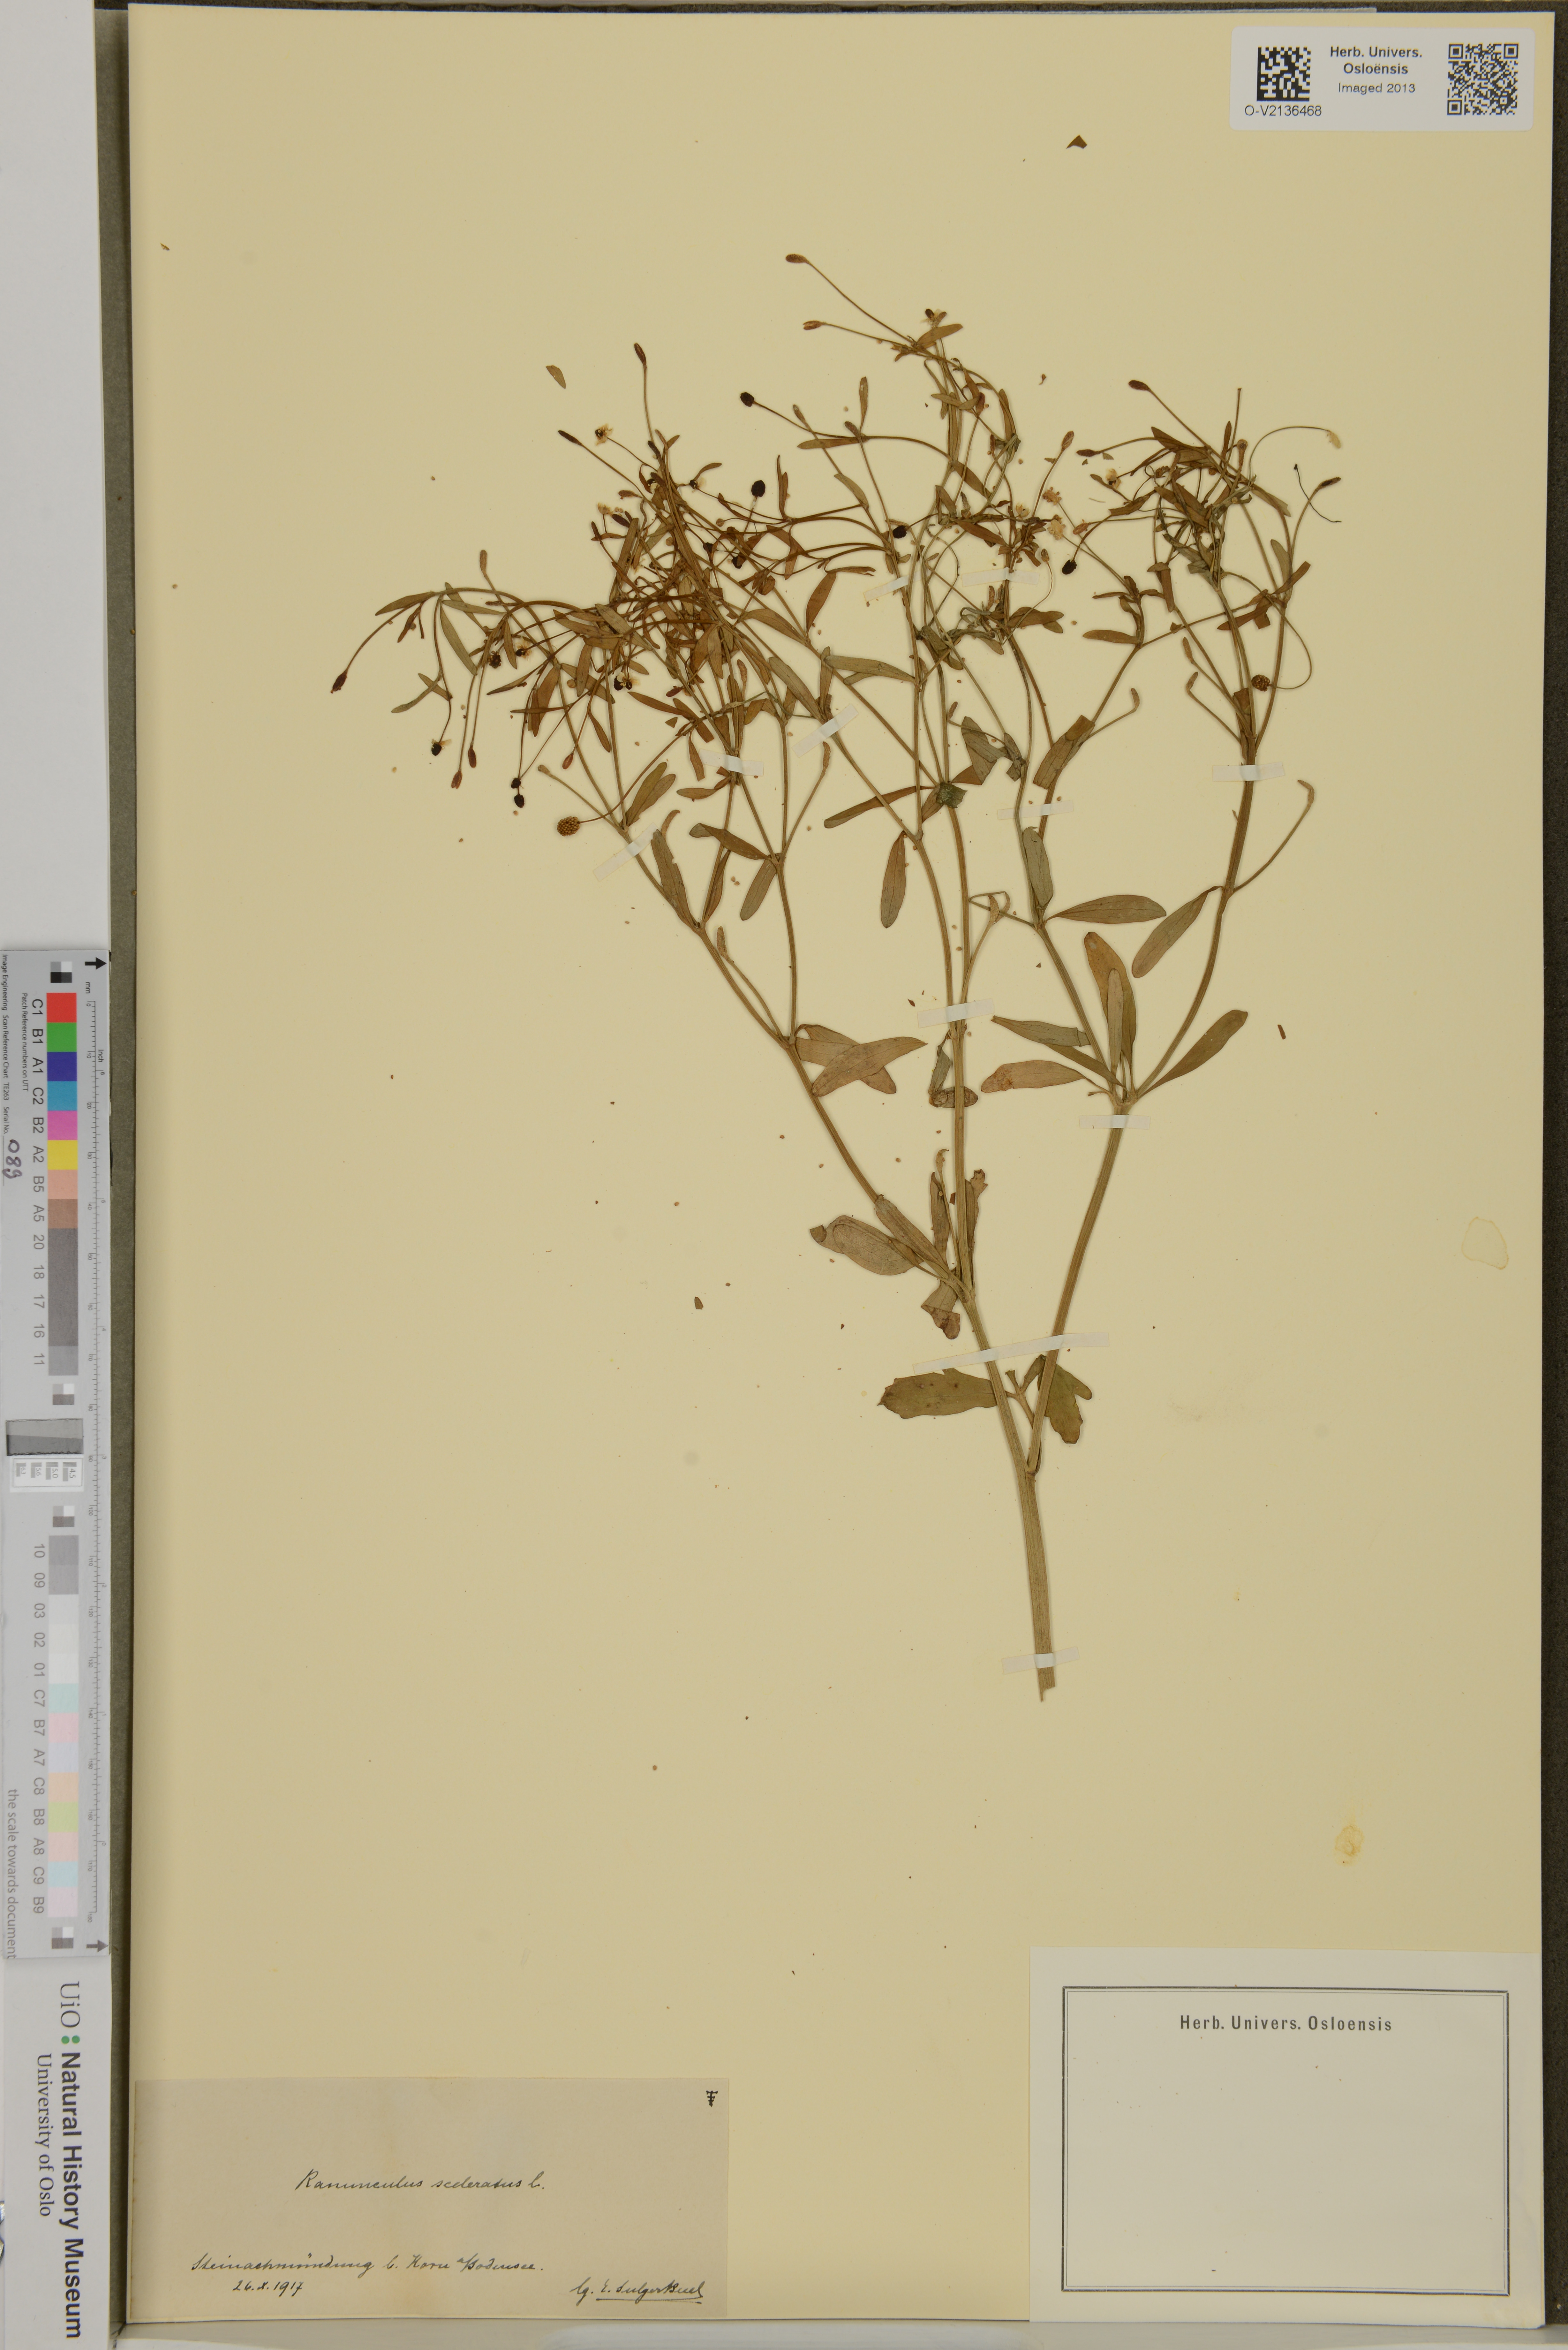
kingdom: Plantae
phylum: Tracheophyta
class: Magnoliopsida
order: Ranunculales
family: Ranunculaceae
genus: Ranunculus
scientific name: Ranunculus sceleratus
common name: Celery-leaved buttercup
